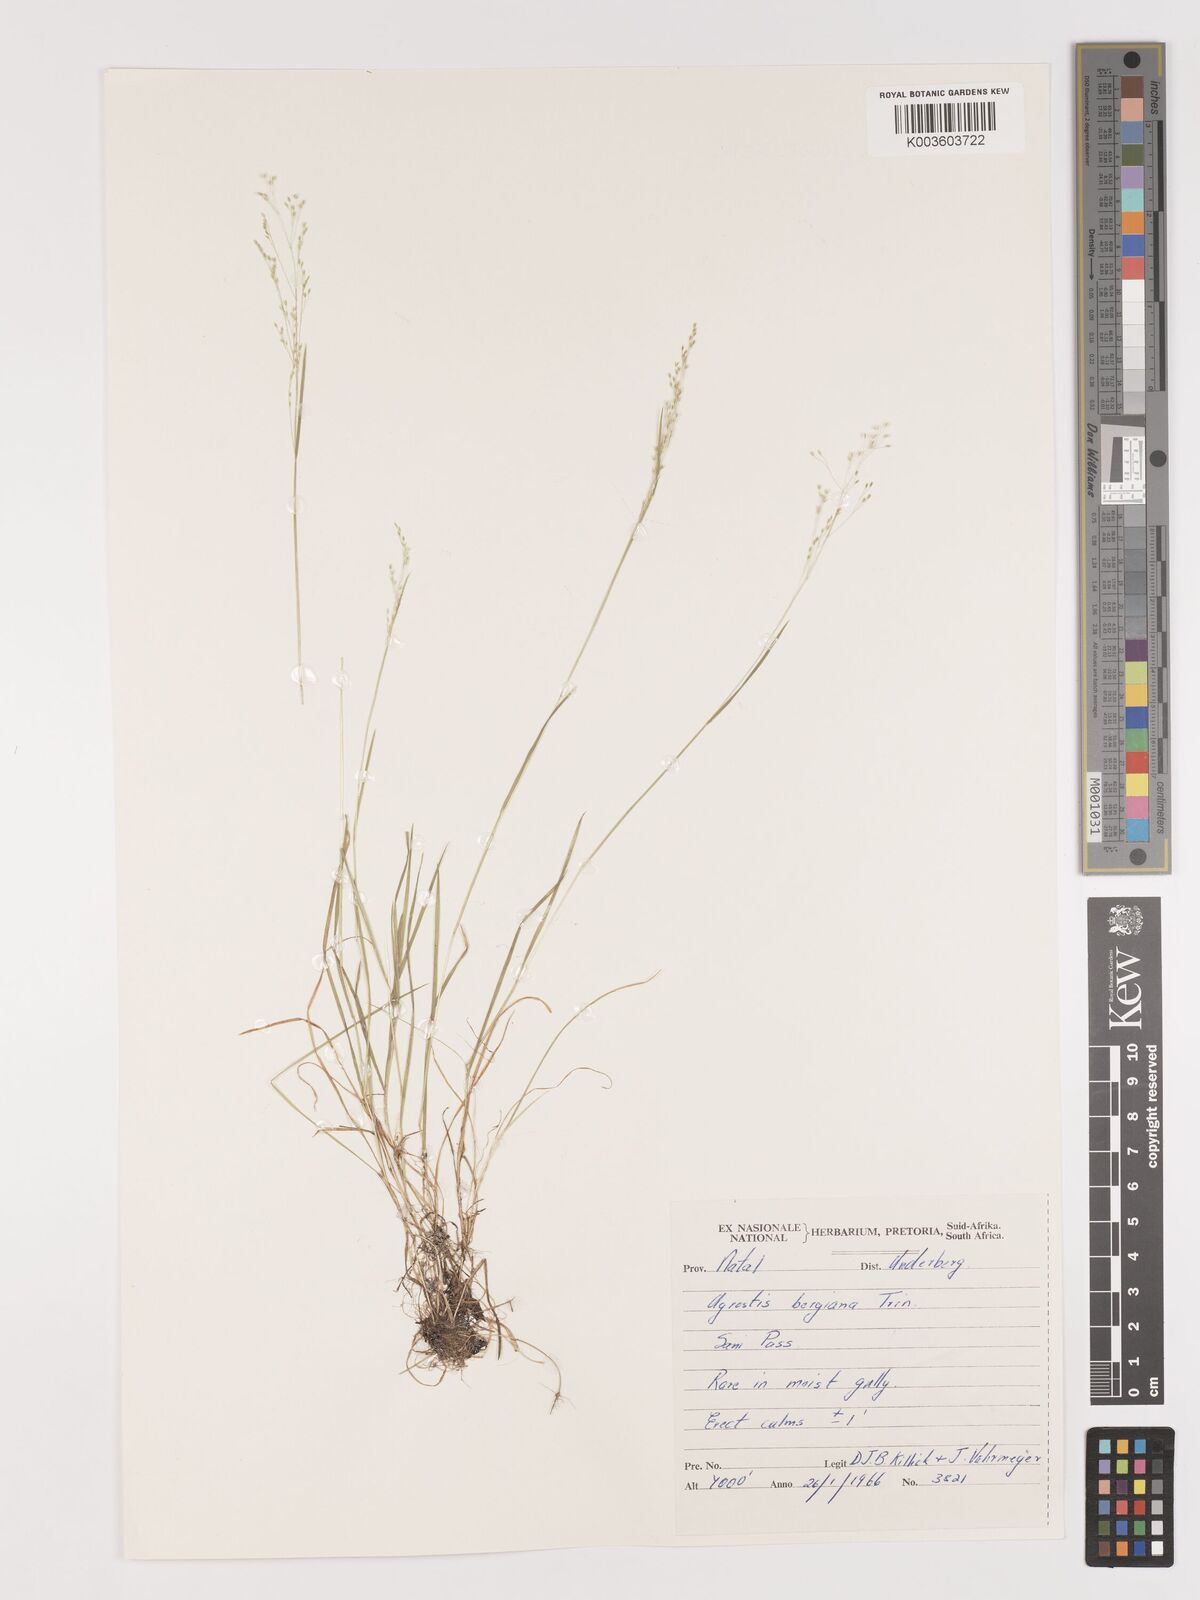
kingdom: Plantae
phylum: Tracheophyta
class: Liliopsida
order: Poales
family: Poaceae
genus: Agrostis
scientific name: Agrostis bergiana
